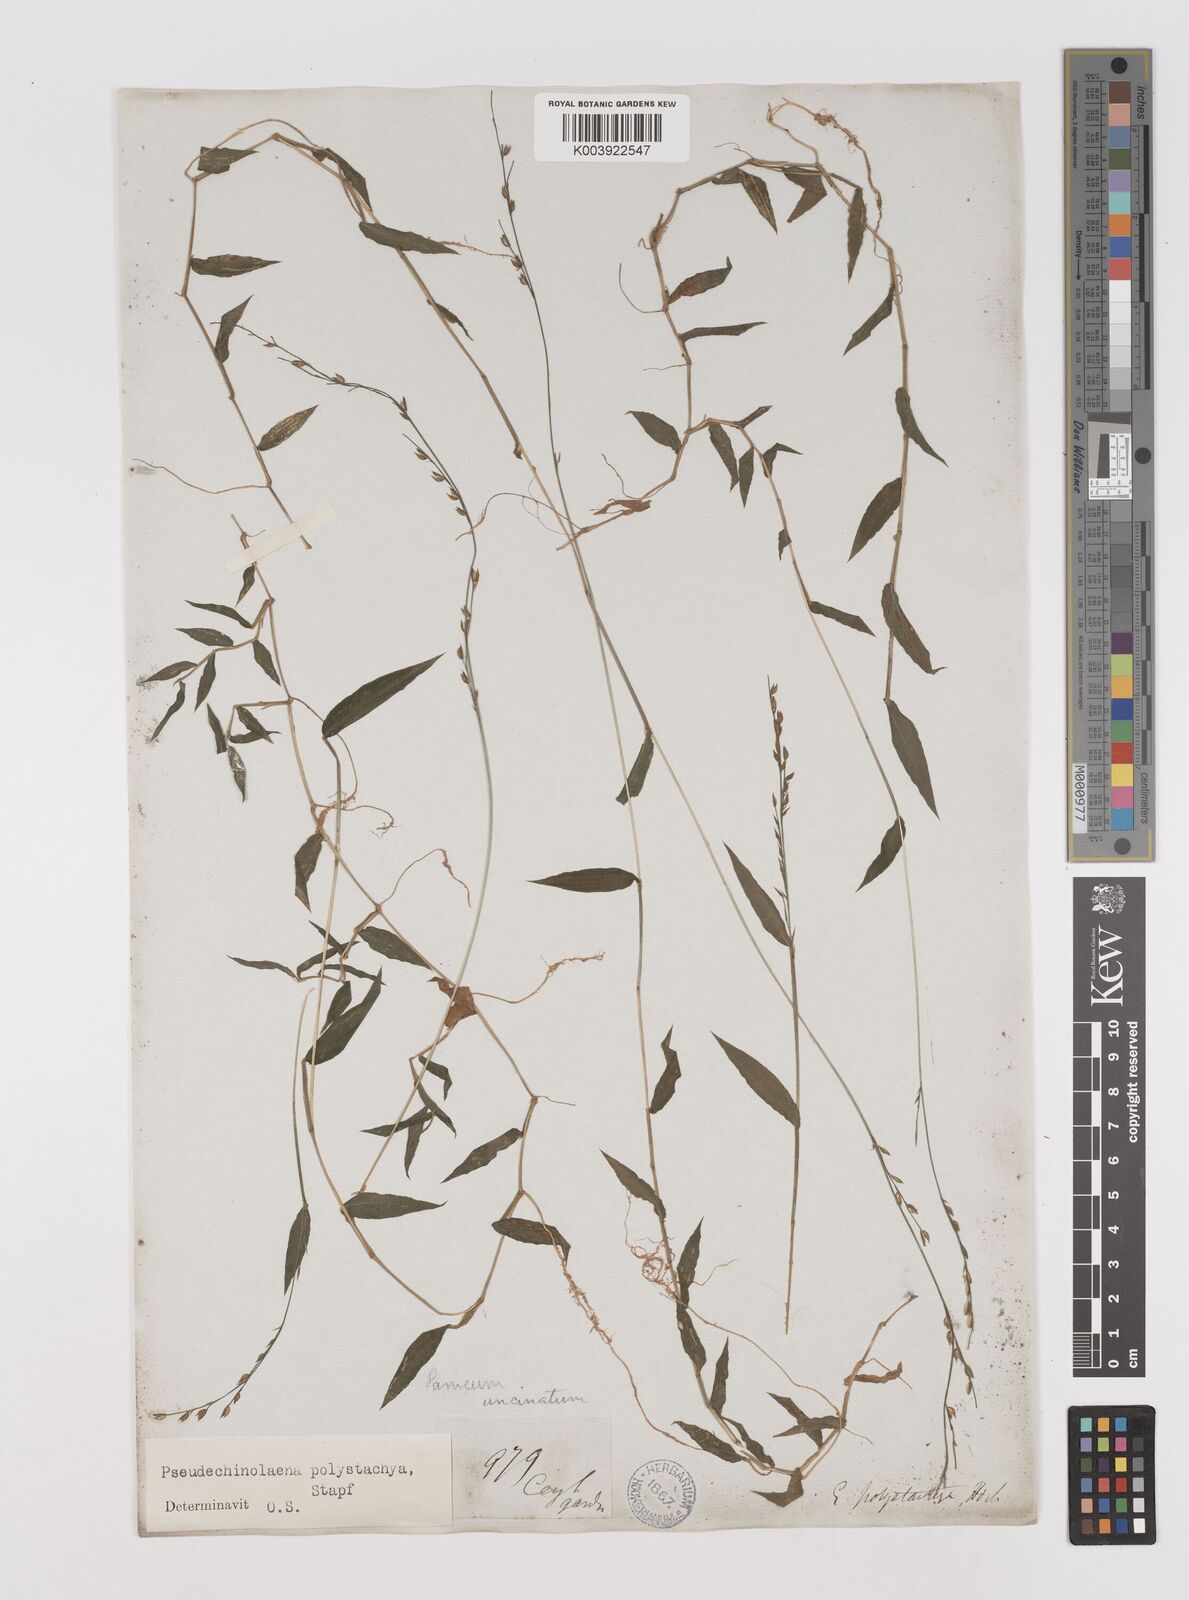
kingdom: Plantae
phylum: Tracheophyta
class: Liliopsida
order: Poales
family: Poaceae
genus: Pseudechinolaena
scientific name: Pseudechinolaena polystachya
